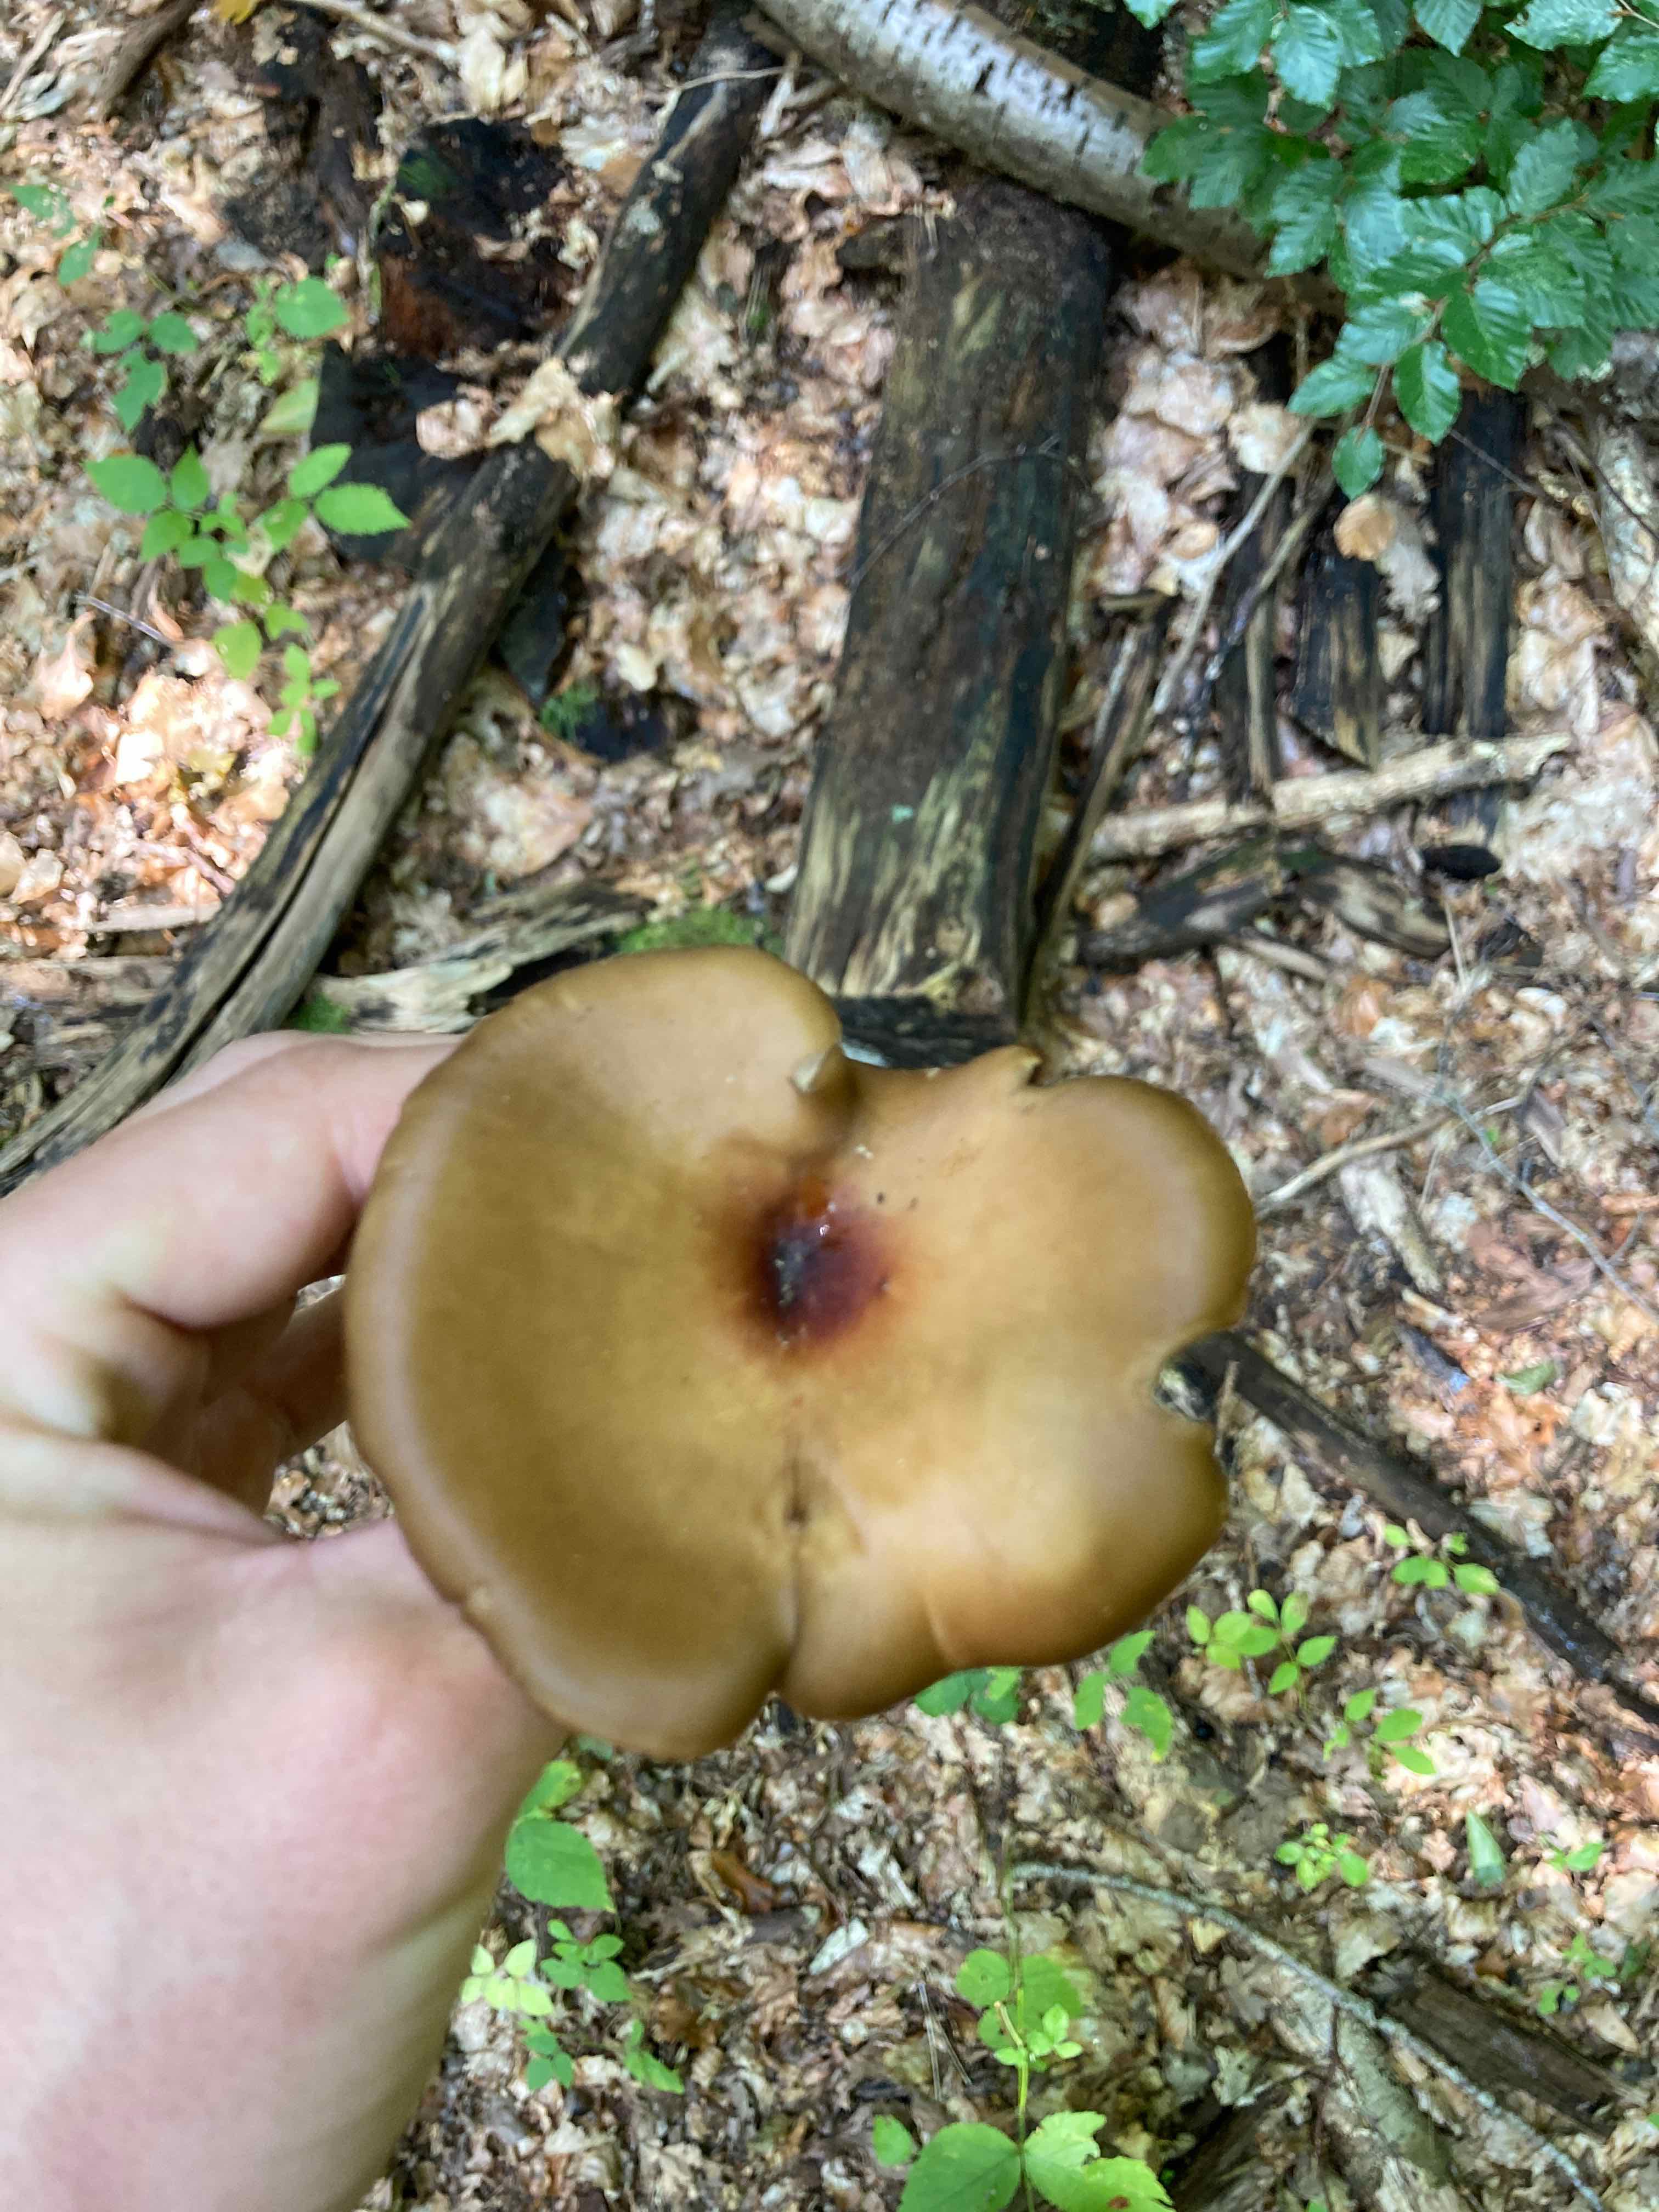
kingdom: Fungi
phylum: Basidiomycota
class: Agaricomycetes
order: Polyporales
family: Polyporaceae
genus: Picipes
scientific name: Picipes badius
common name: kastaniebrun stilkporesvamp
